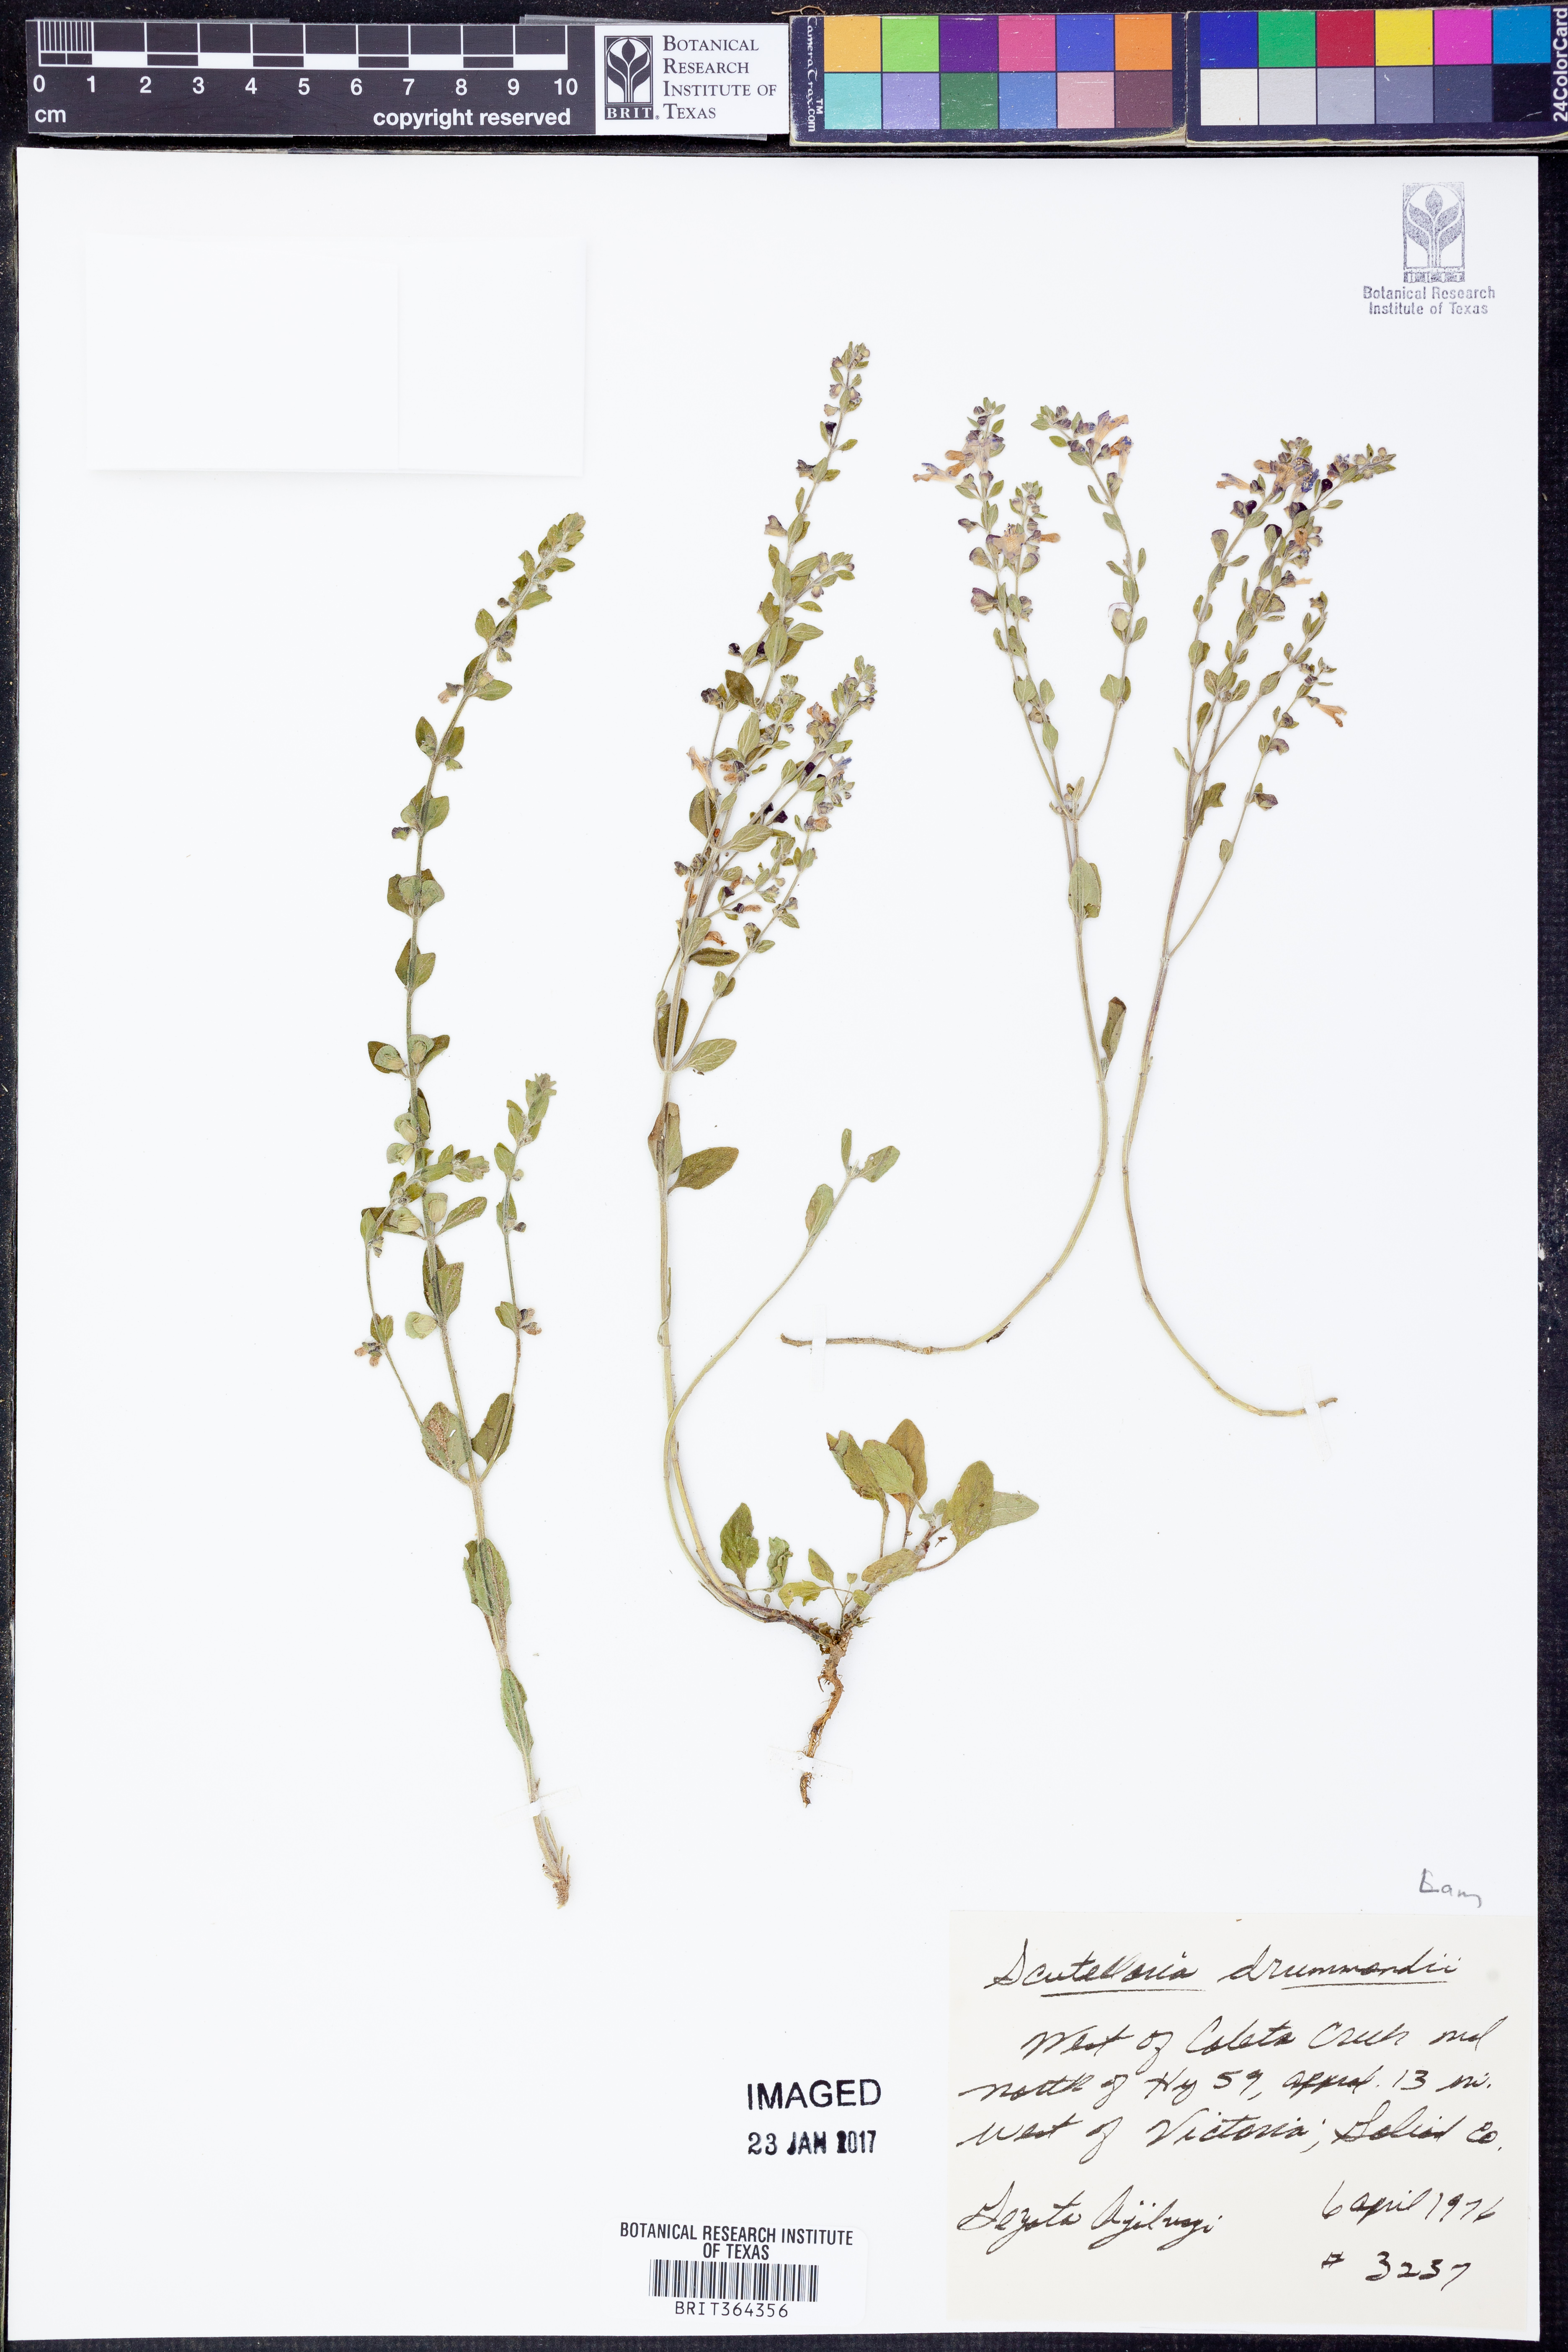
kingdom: Plantae
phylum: Tracheophyta
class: Magnoliopsida
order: Lamiales
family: Lamiaceae
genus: Scutellaria
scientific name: Scutellaria drummondii
